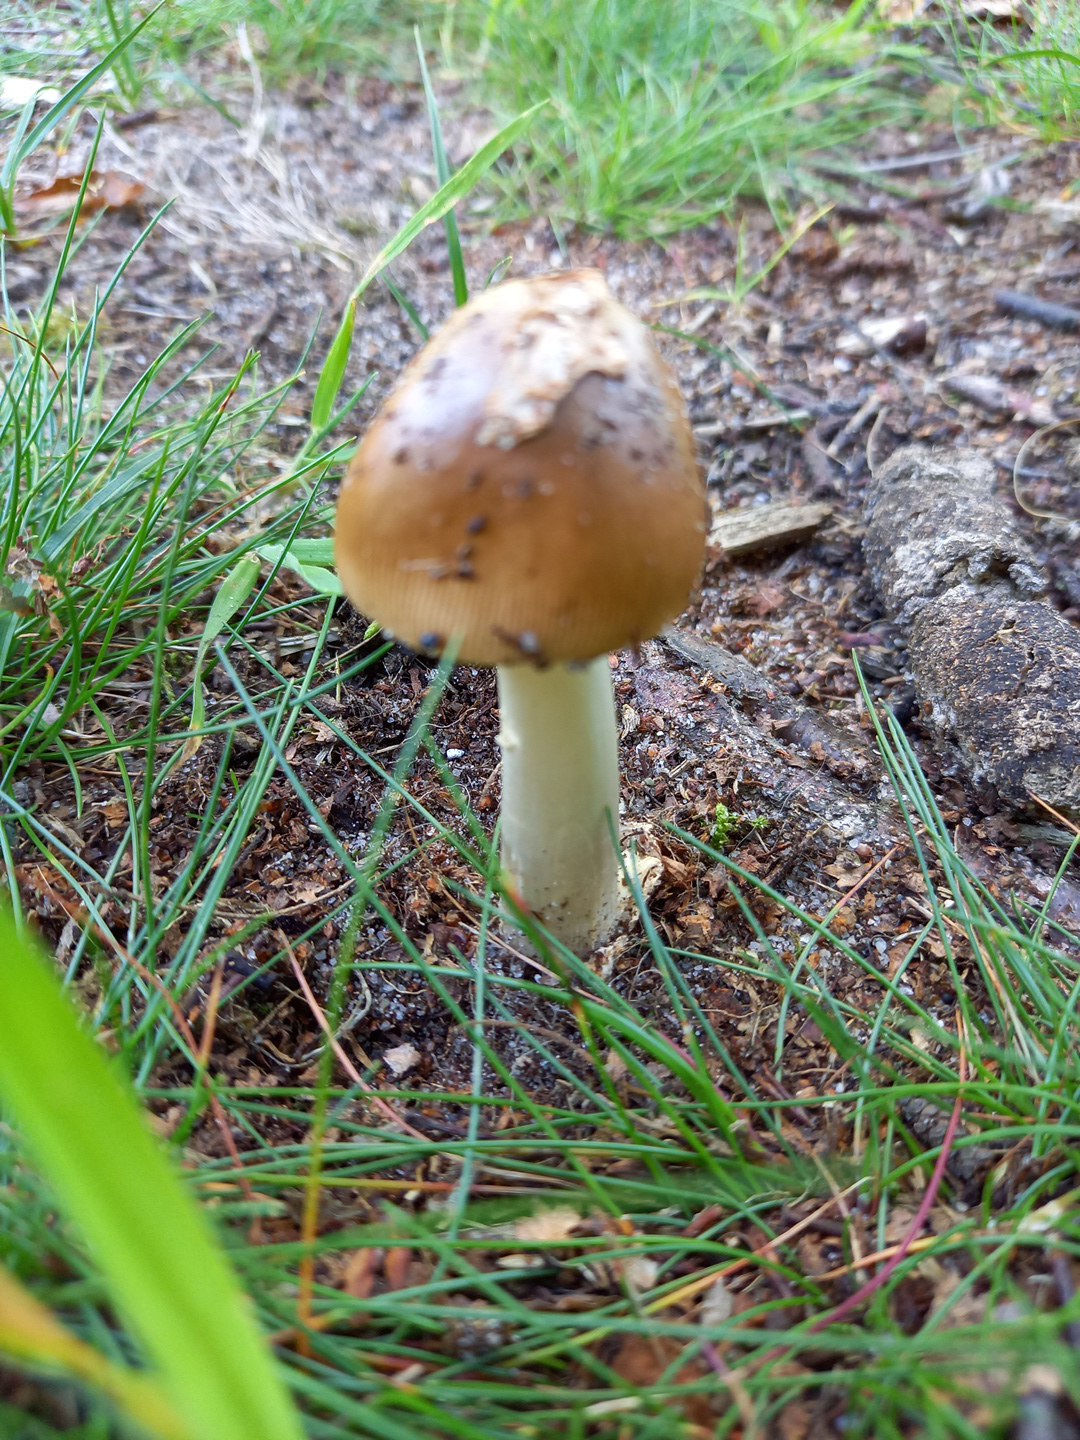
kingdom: Fungi
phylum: Basidiomycota
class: Agaricomycetes
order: Agaricales
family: Amanitaceae
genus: Amanita
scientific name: Amanita fulva
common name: brun kam-fluesvamp
